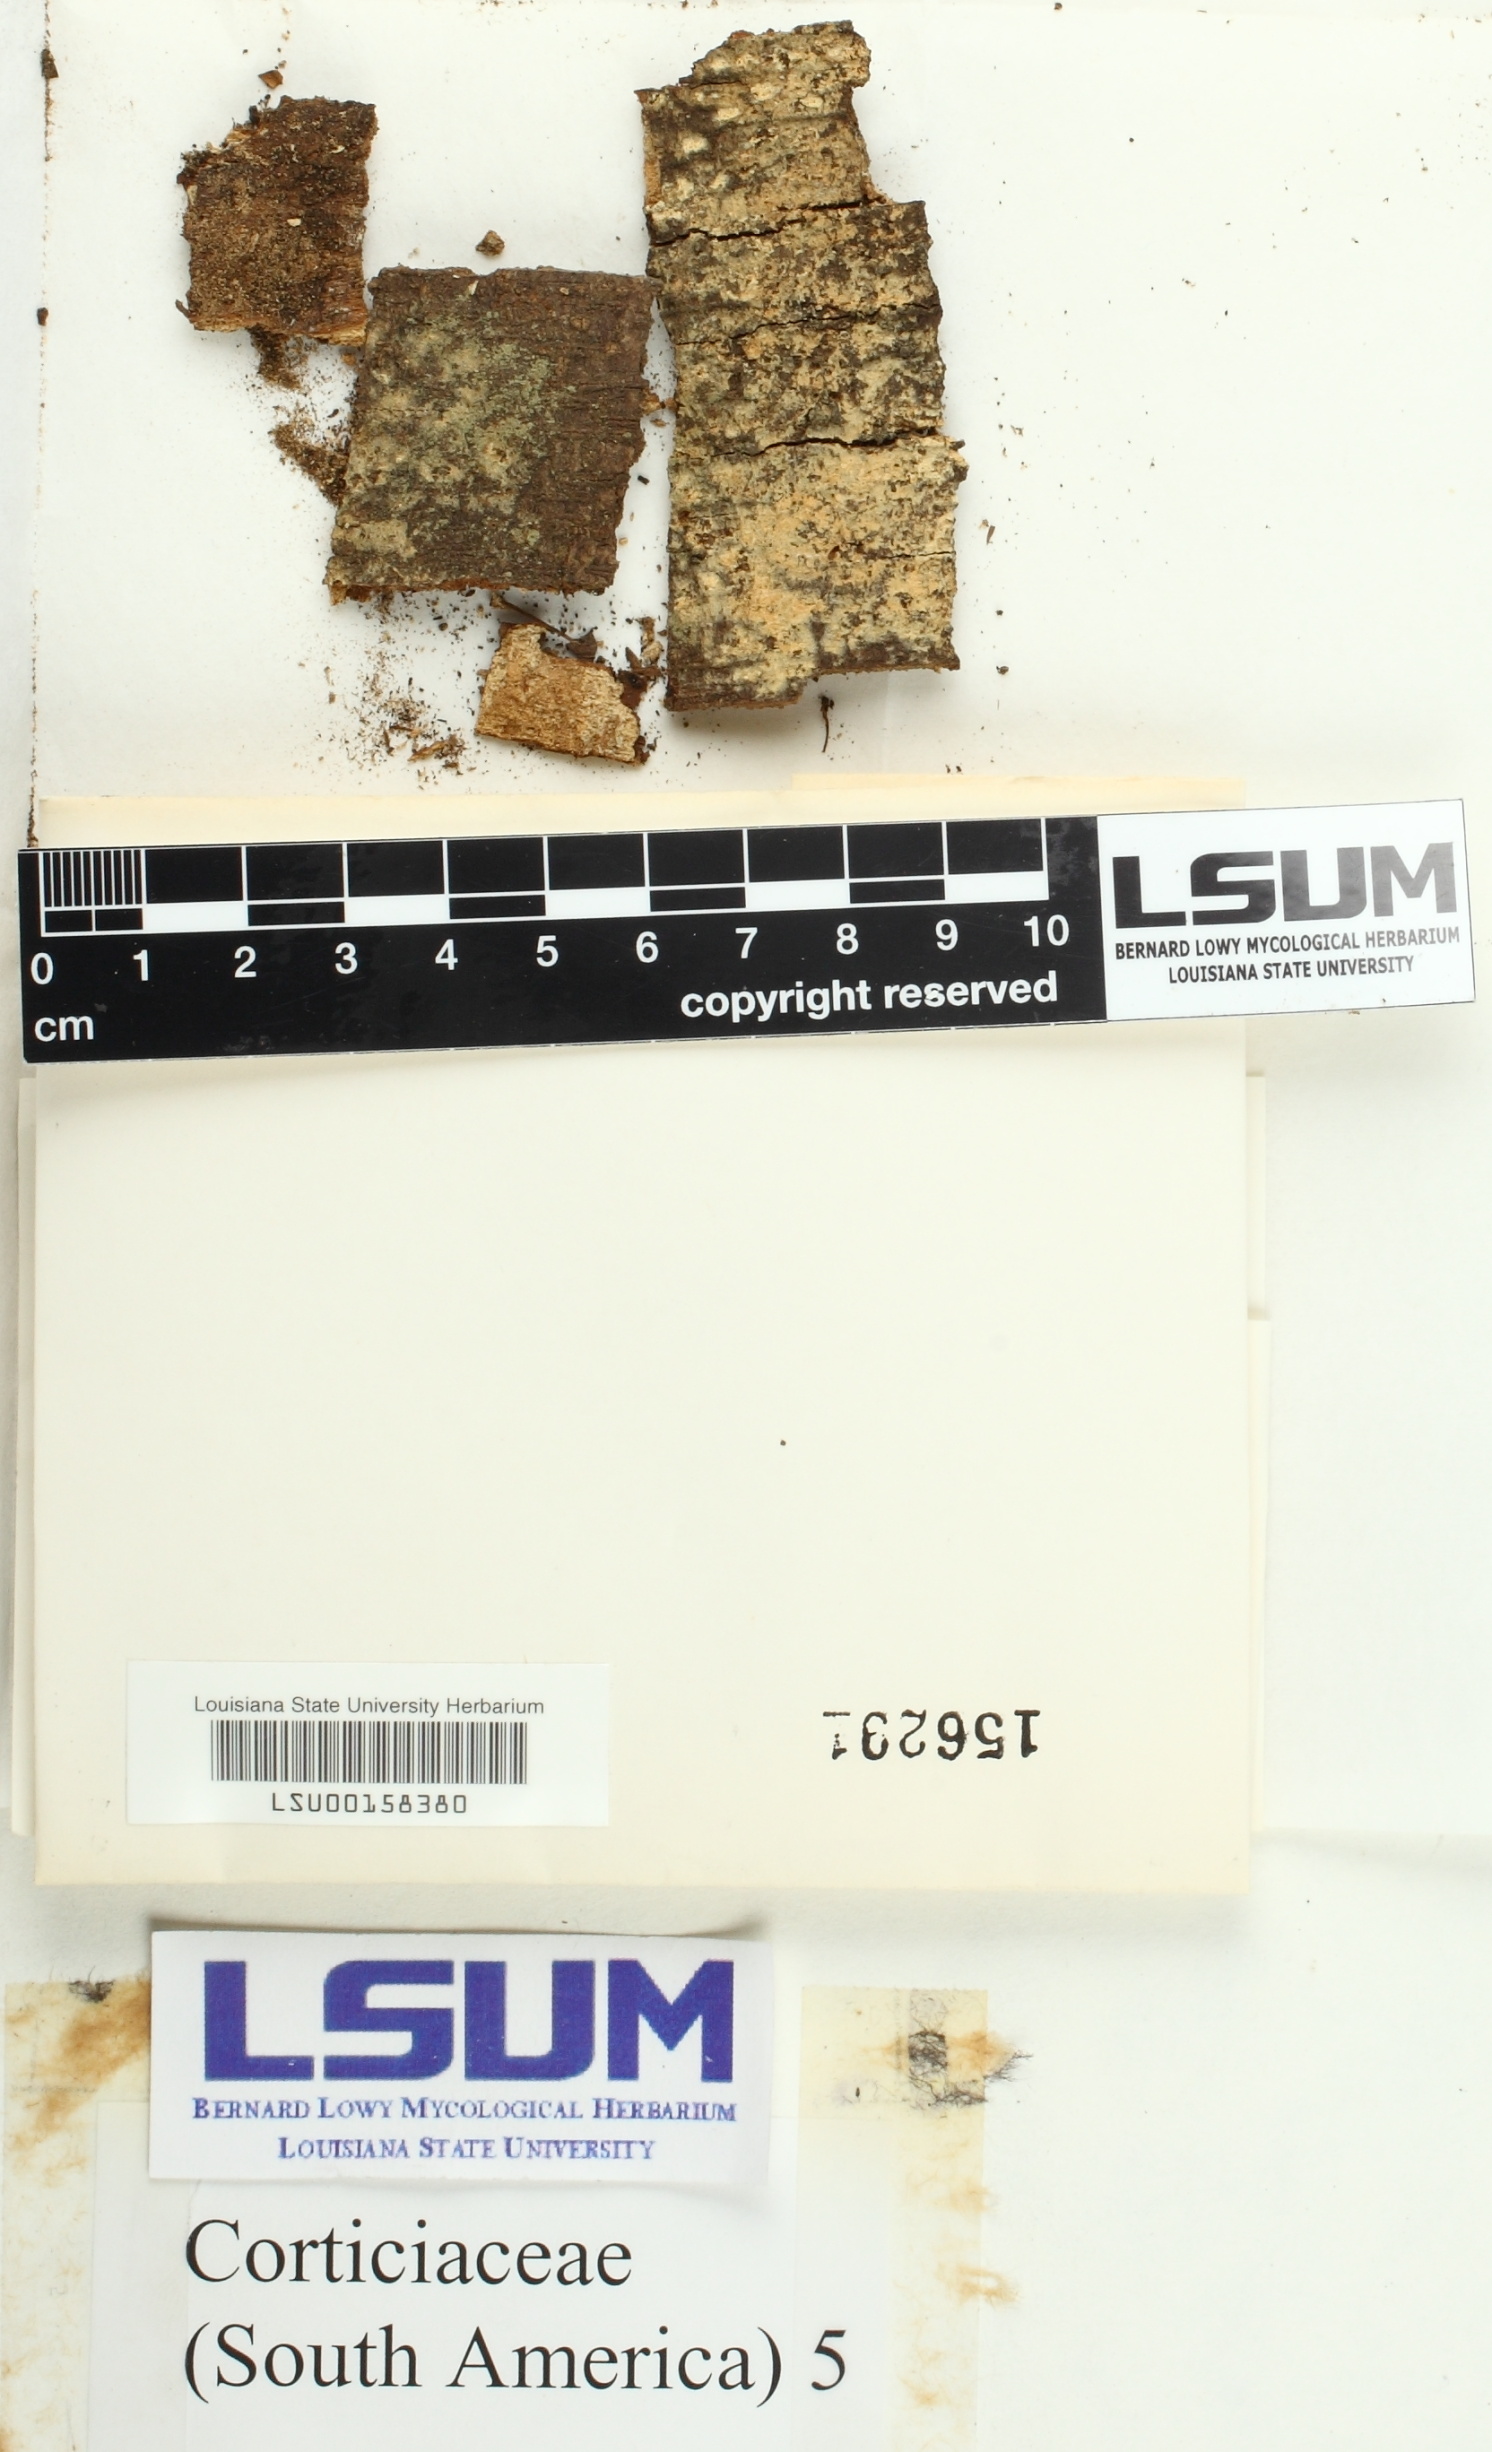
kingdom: Fungi
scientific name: Fungi
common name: Fungi
